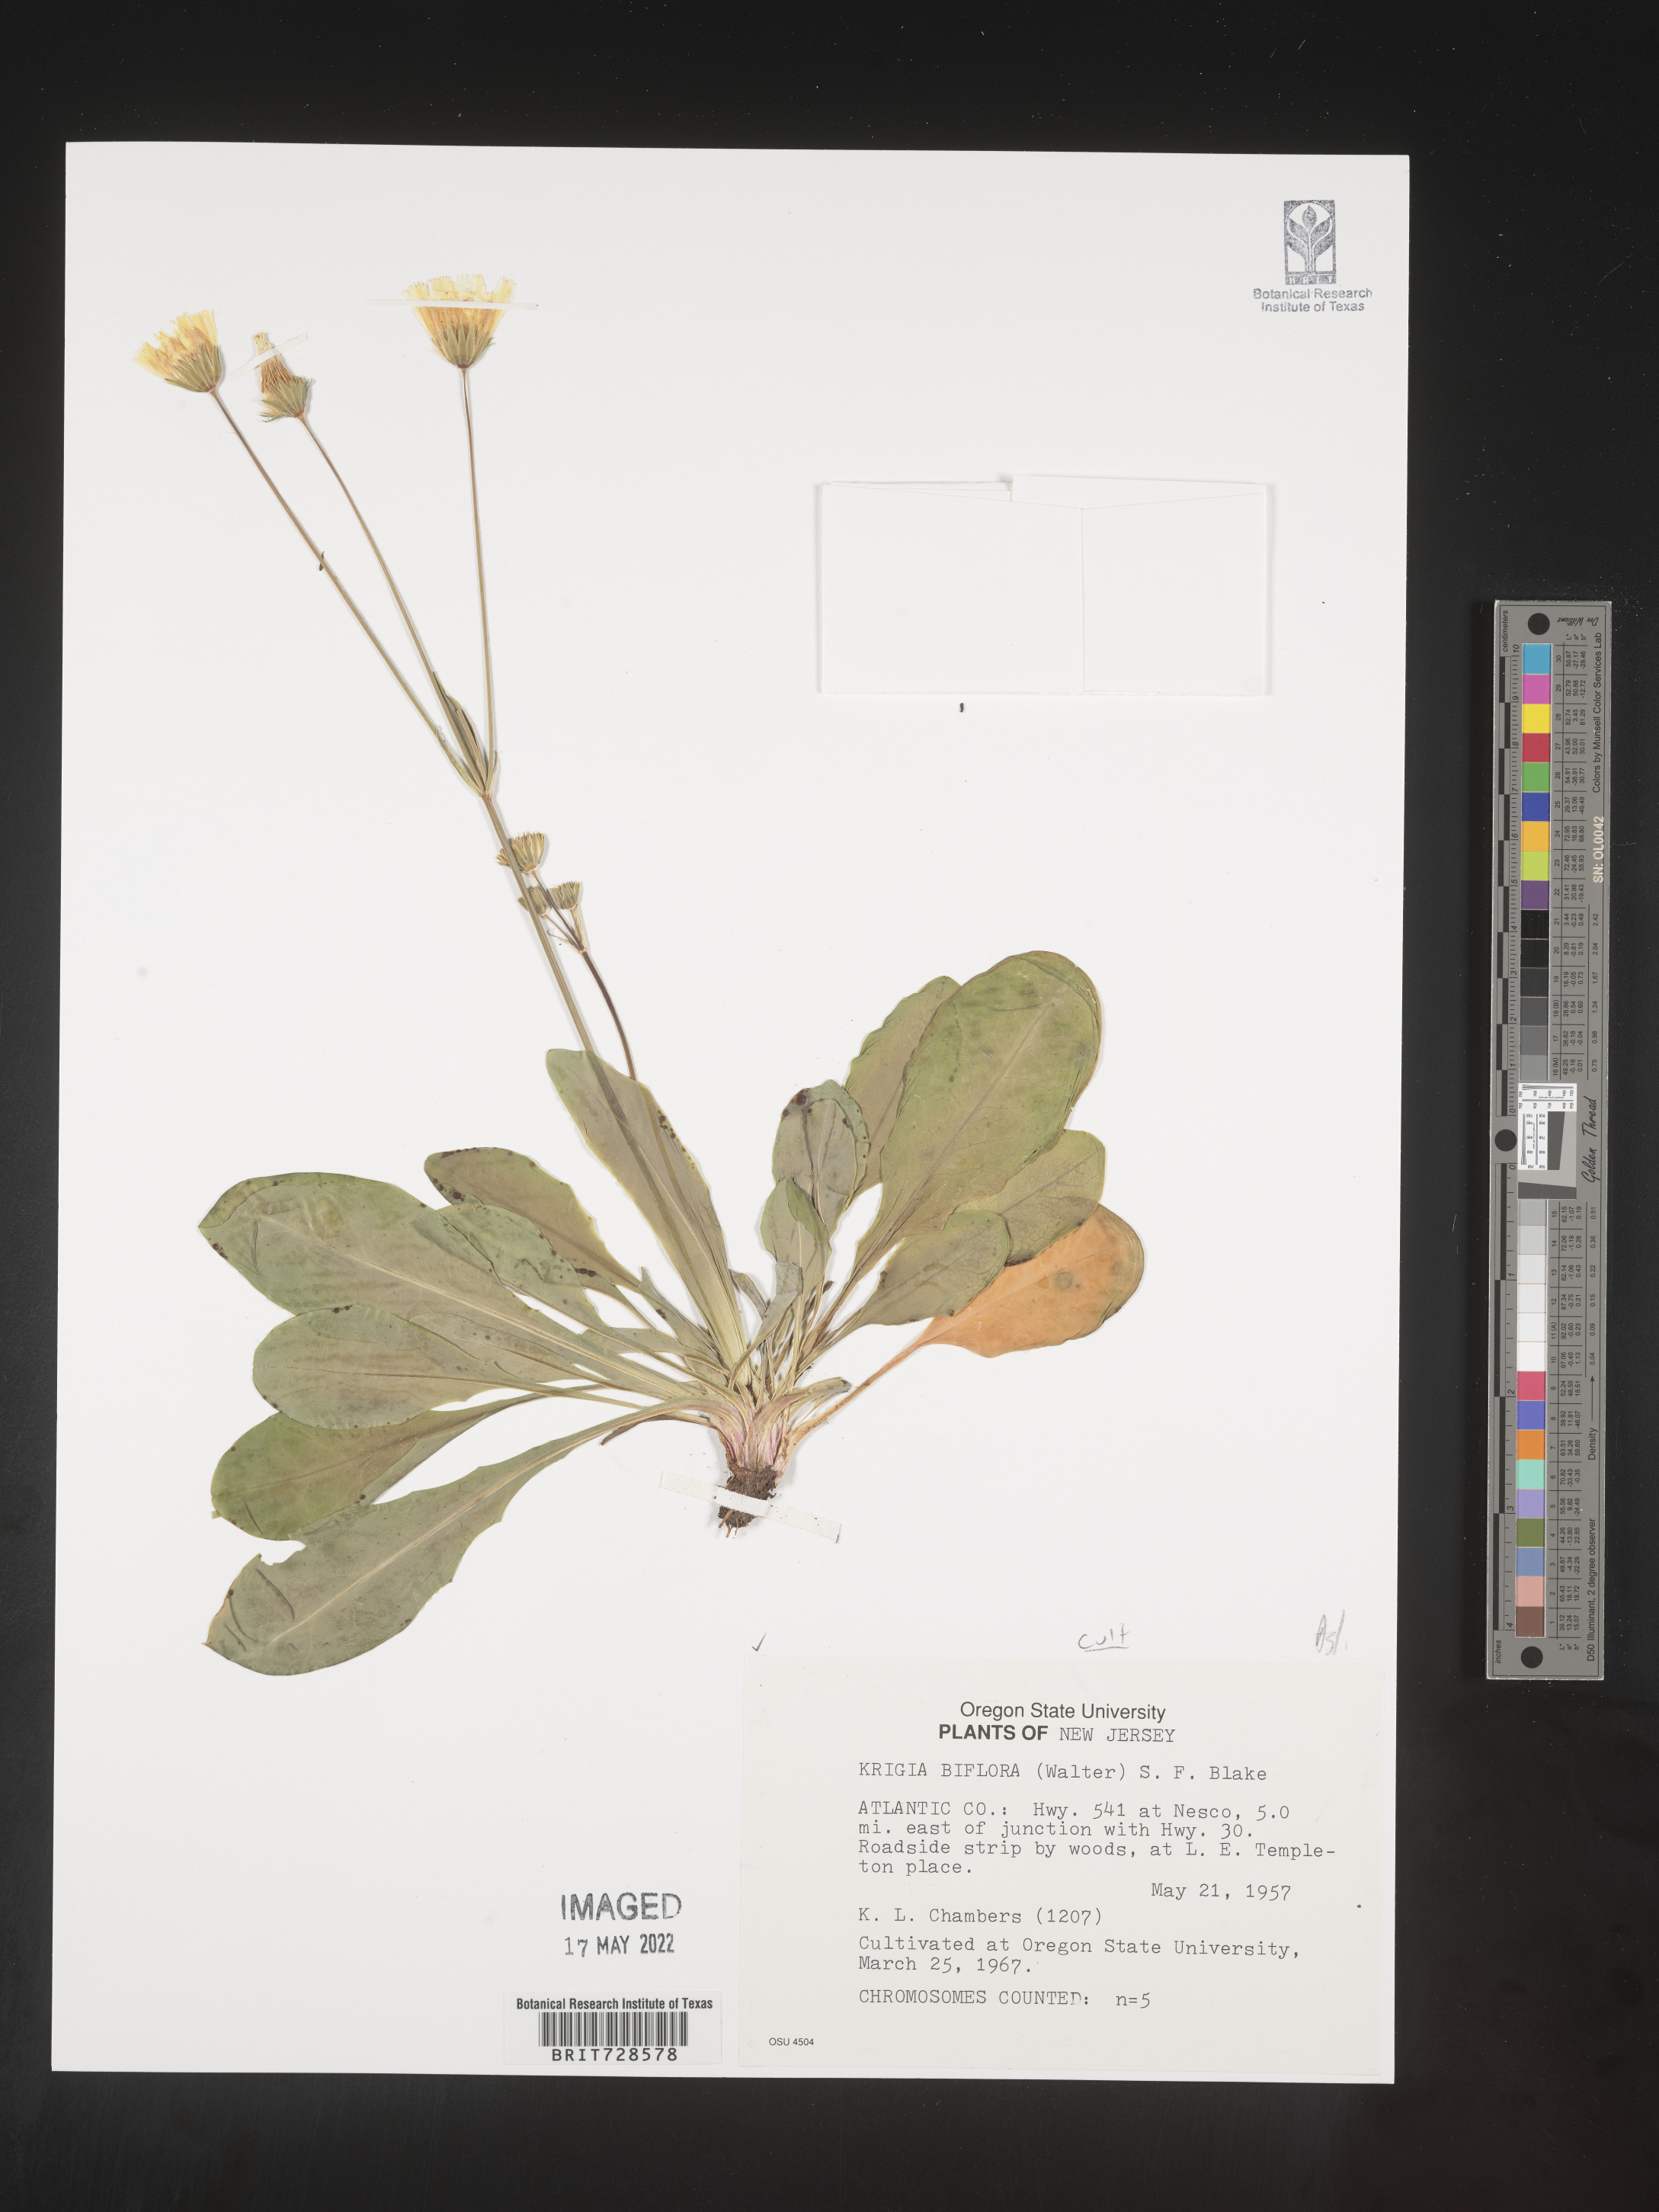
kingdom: Plantae
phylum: Tracheophyta
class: Magnoliopsida
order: Asterales
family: Asteraceae
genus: Krigia
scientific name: Krigia
